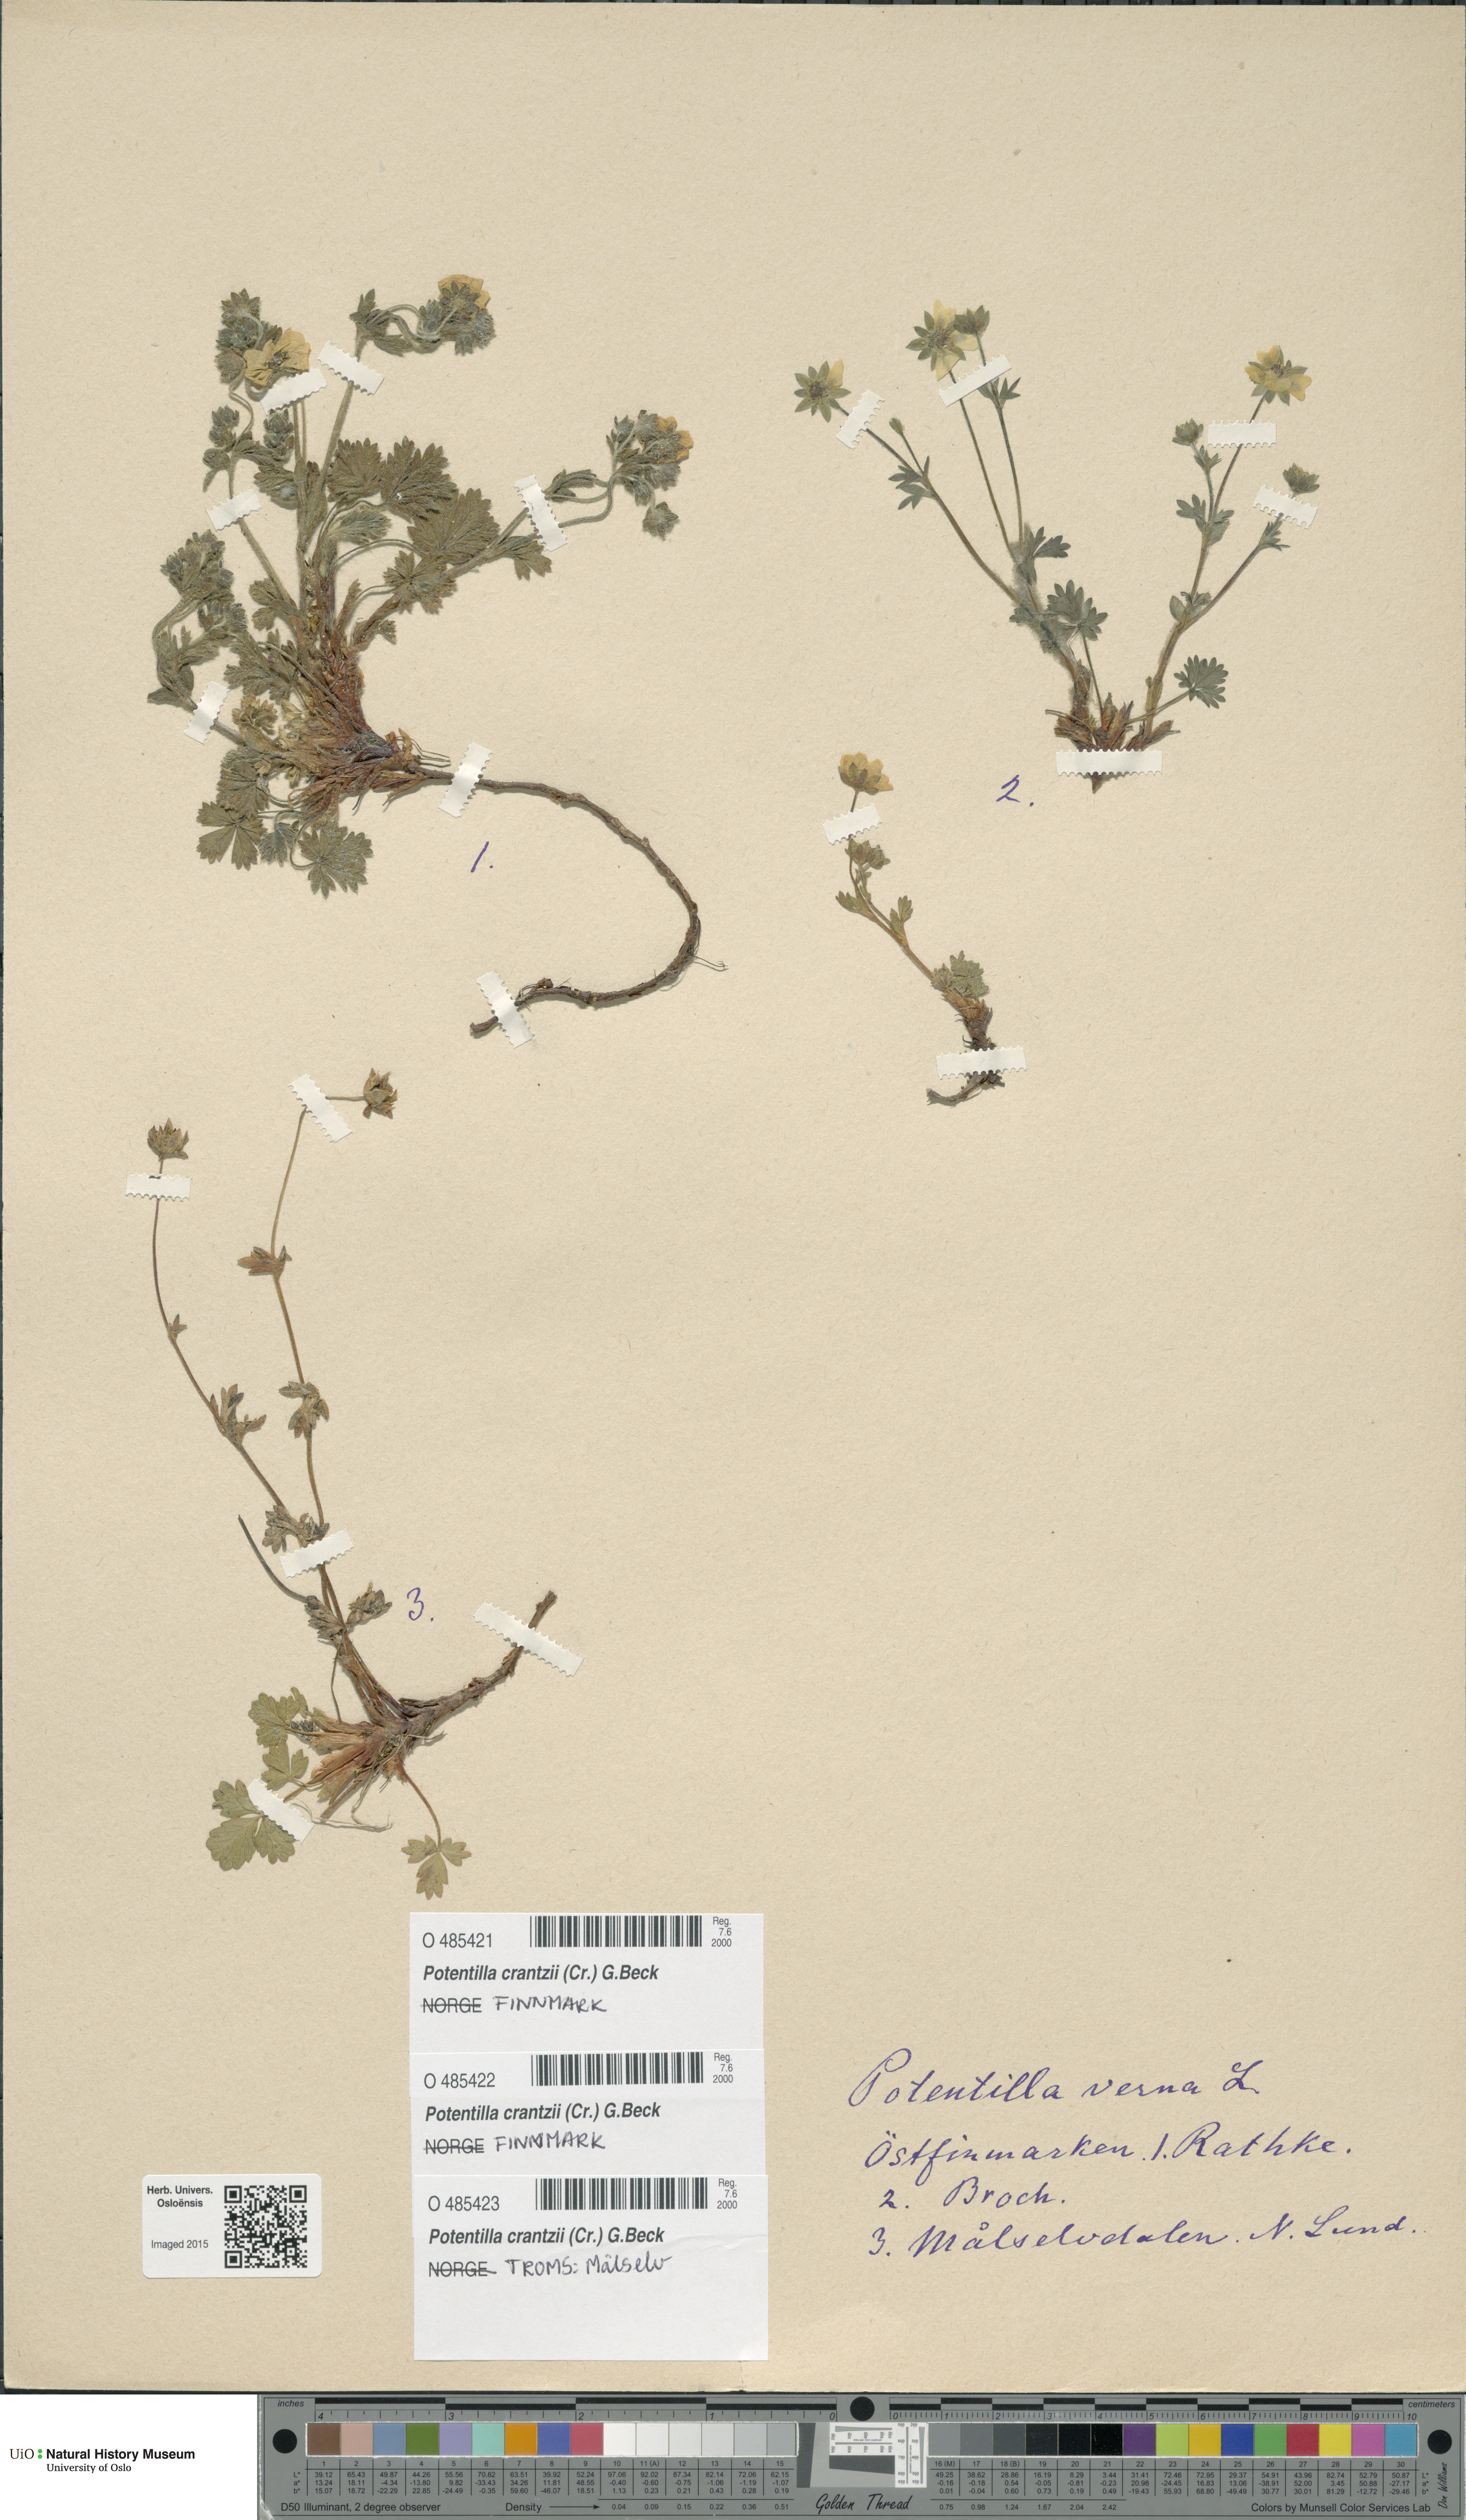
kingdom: Plantae
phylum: Tracheophyta
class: Magnoliopsida
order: Rosales
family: Rosaceae
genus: Potentilla
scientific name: Potentilla verna
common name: Spring cinquefoil
